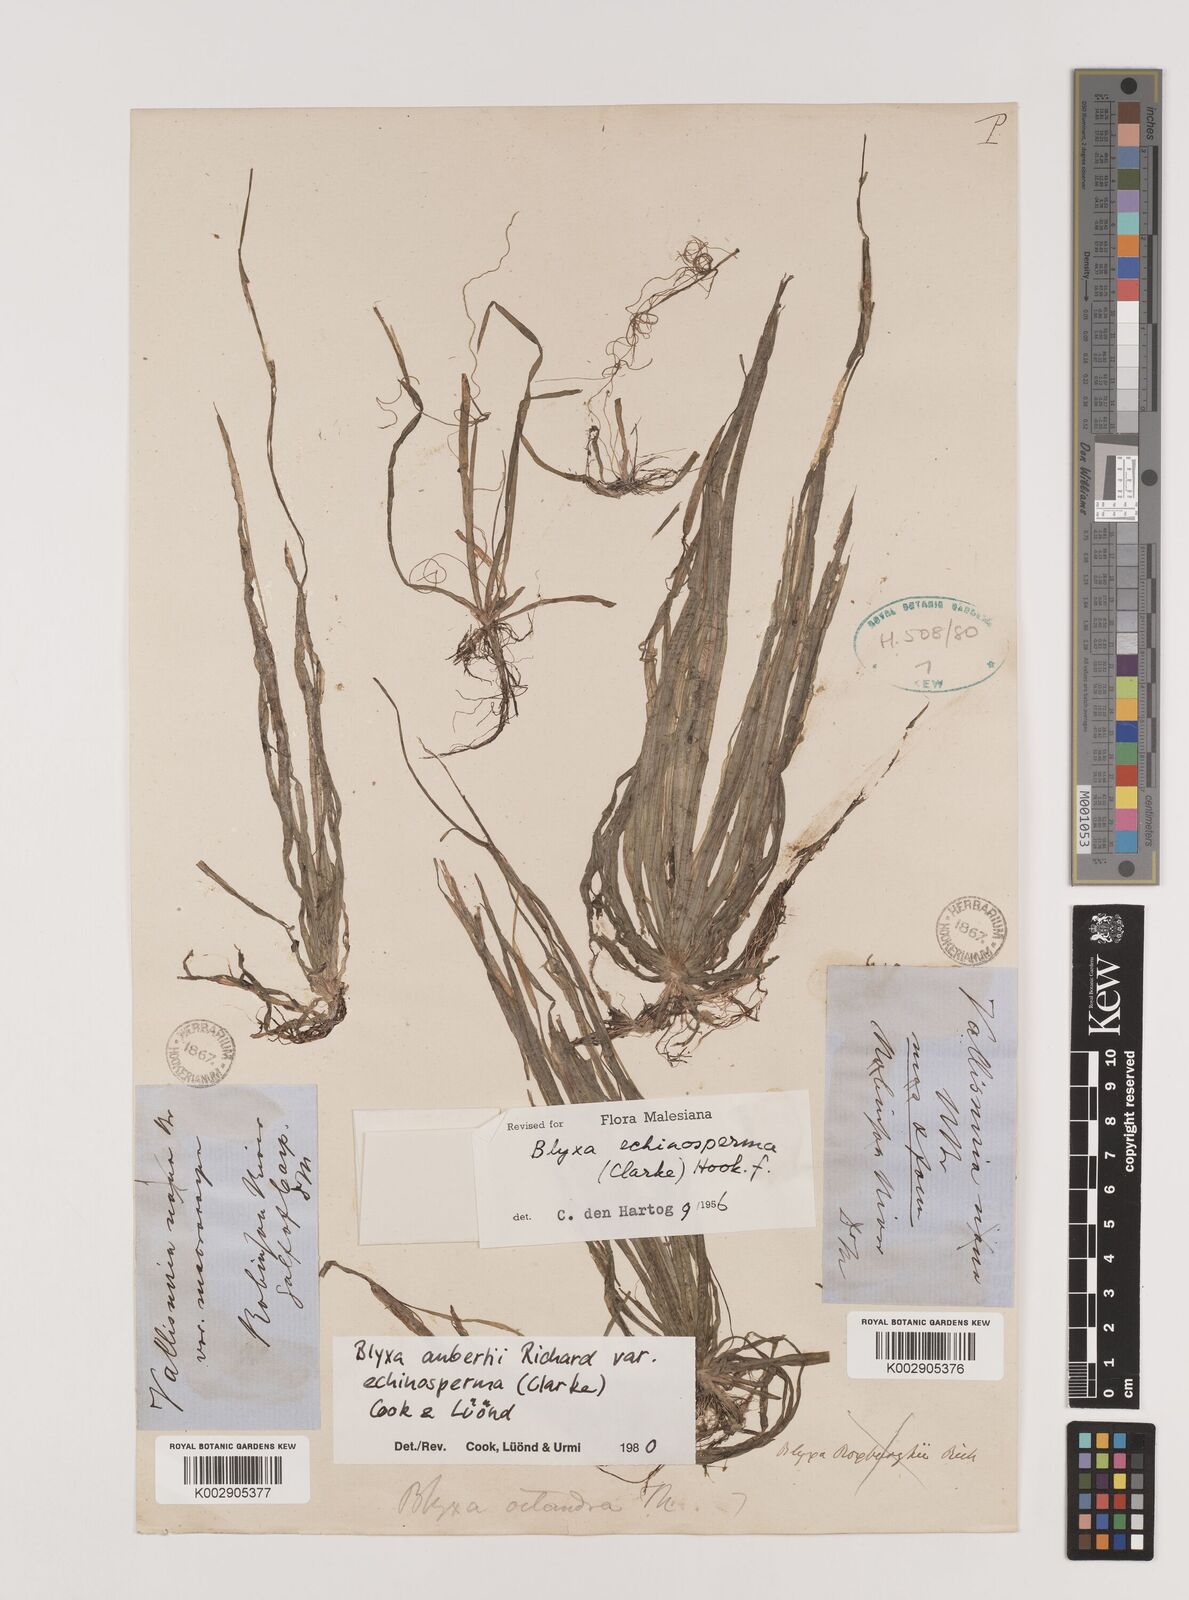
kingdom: Plantae
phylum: Tracheophyta
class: Liliopsida
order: Alismatales
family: Hydrocharitaceae
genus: Blyxa
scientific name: Blyxa aubertii
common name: Roundfruit blyxa
